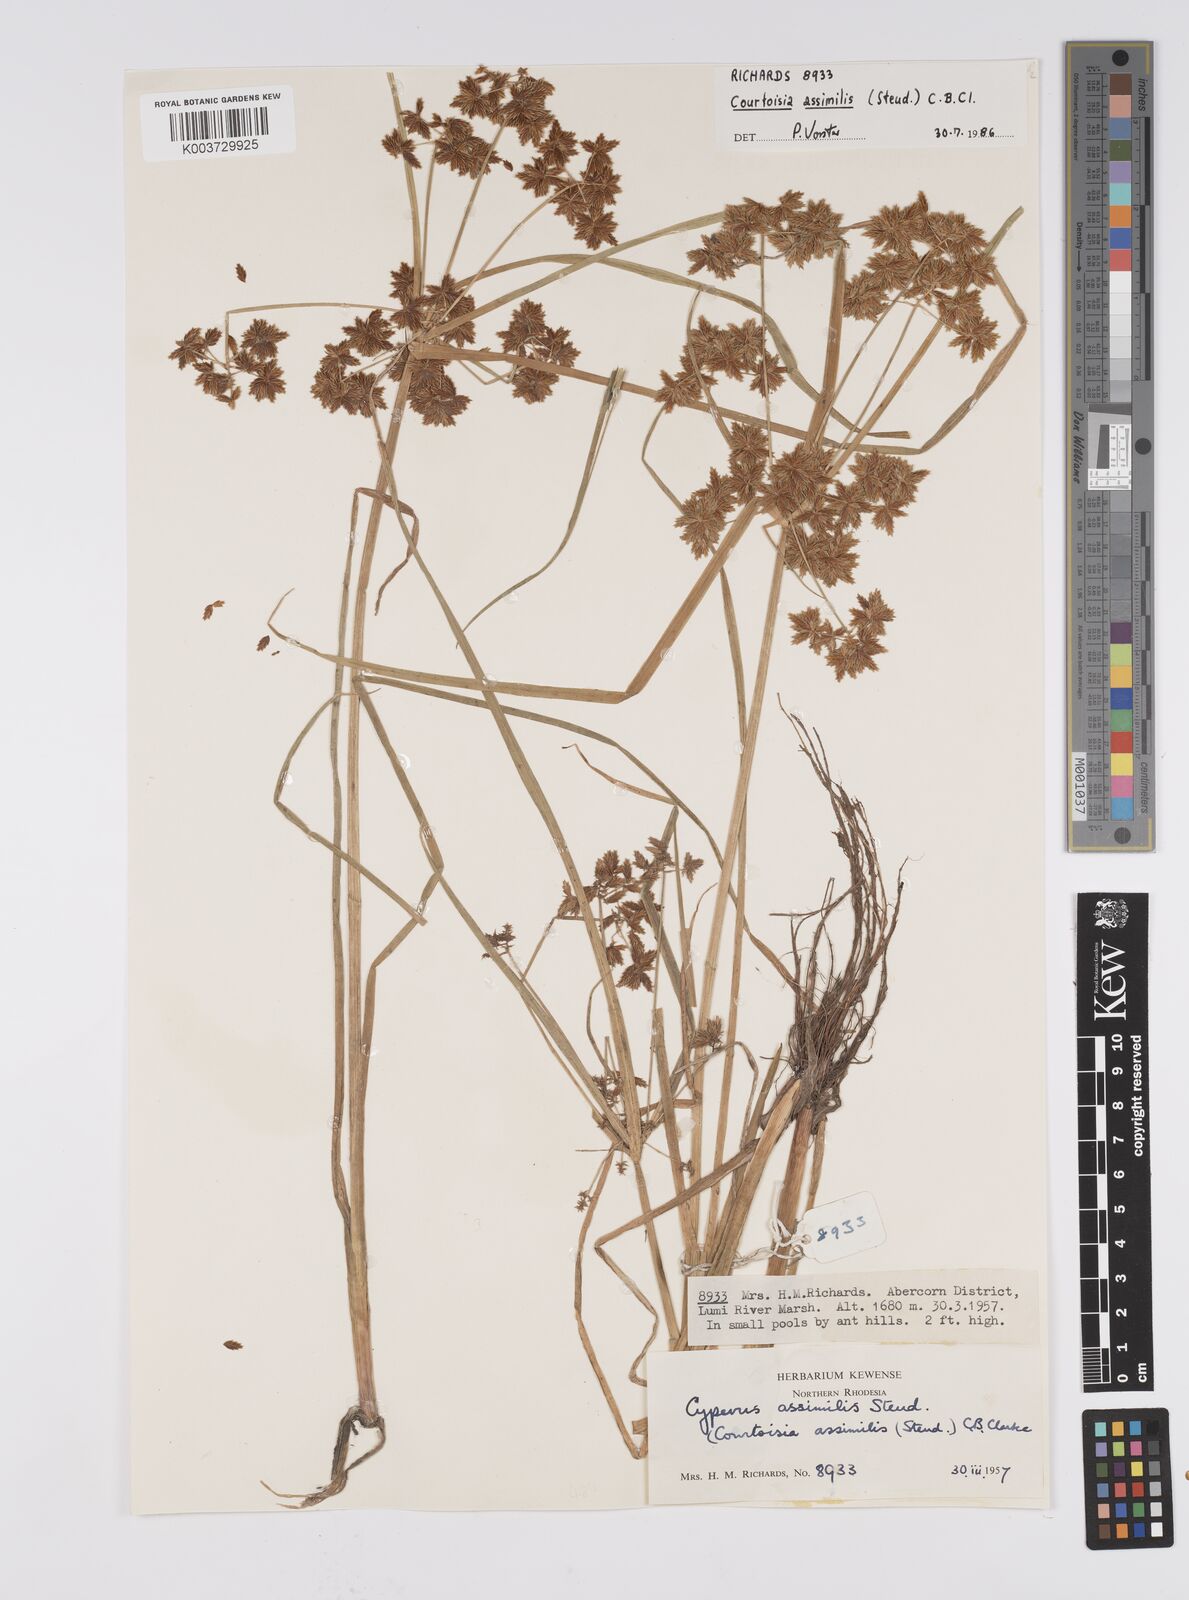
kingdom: Plantae
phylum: Tracheophyta
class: Liliopsida
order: Poales
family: Cyperaceae
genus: Cyperus
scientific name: Cyperus assimilis
